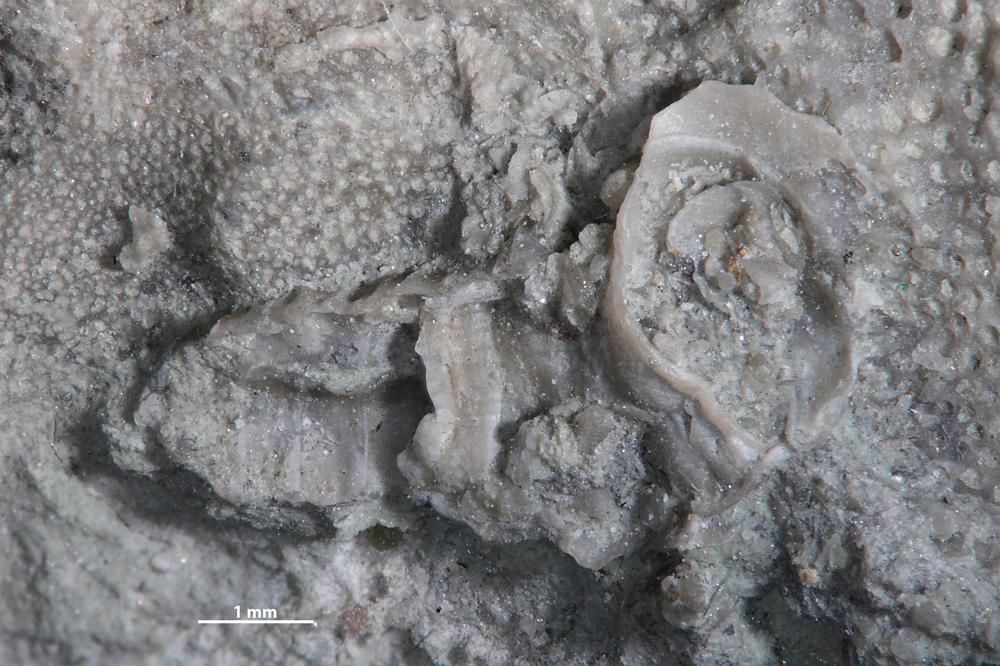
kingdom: Animalia
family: Cornulitidae
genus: Cornulites
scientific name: Cornulites
